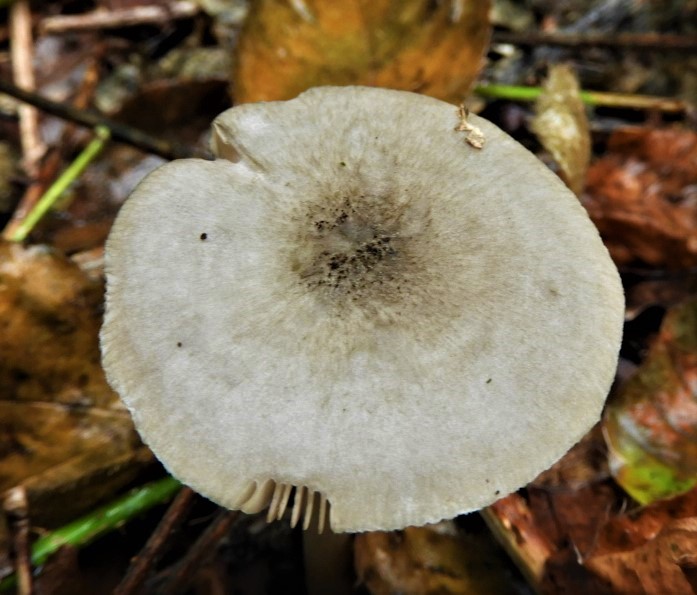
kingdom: Fungi
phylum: Basidiomycota
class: Agaricomycetes
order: Agaricales
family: Pluteaceae
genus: Pluteus
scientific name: Pluteus salicinus
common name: stiv skærmhat
